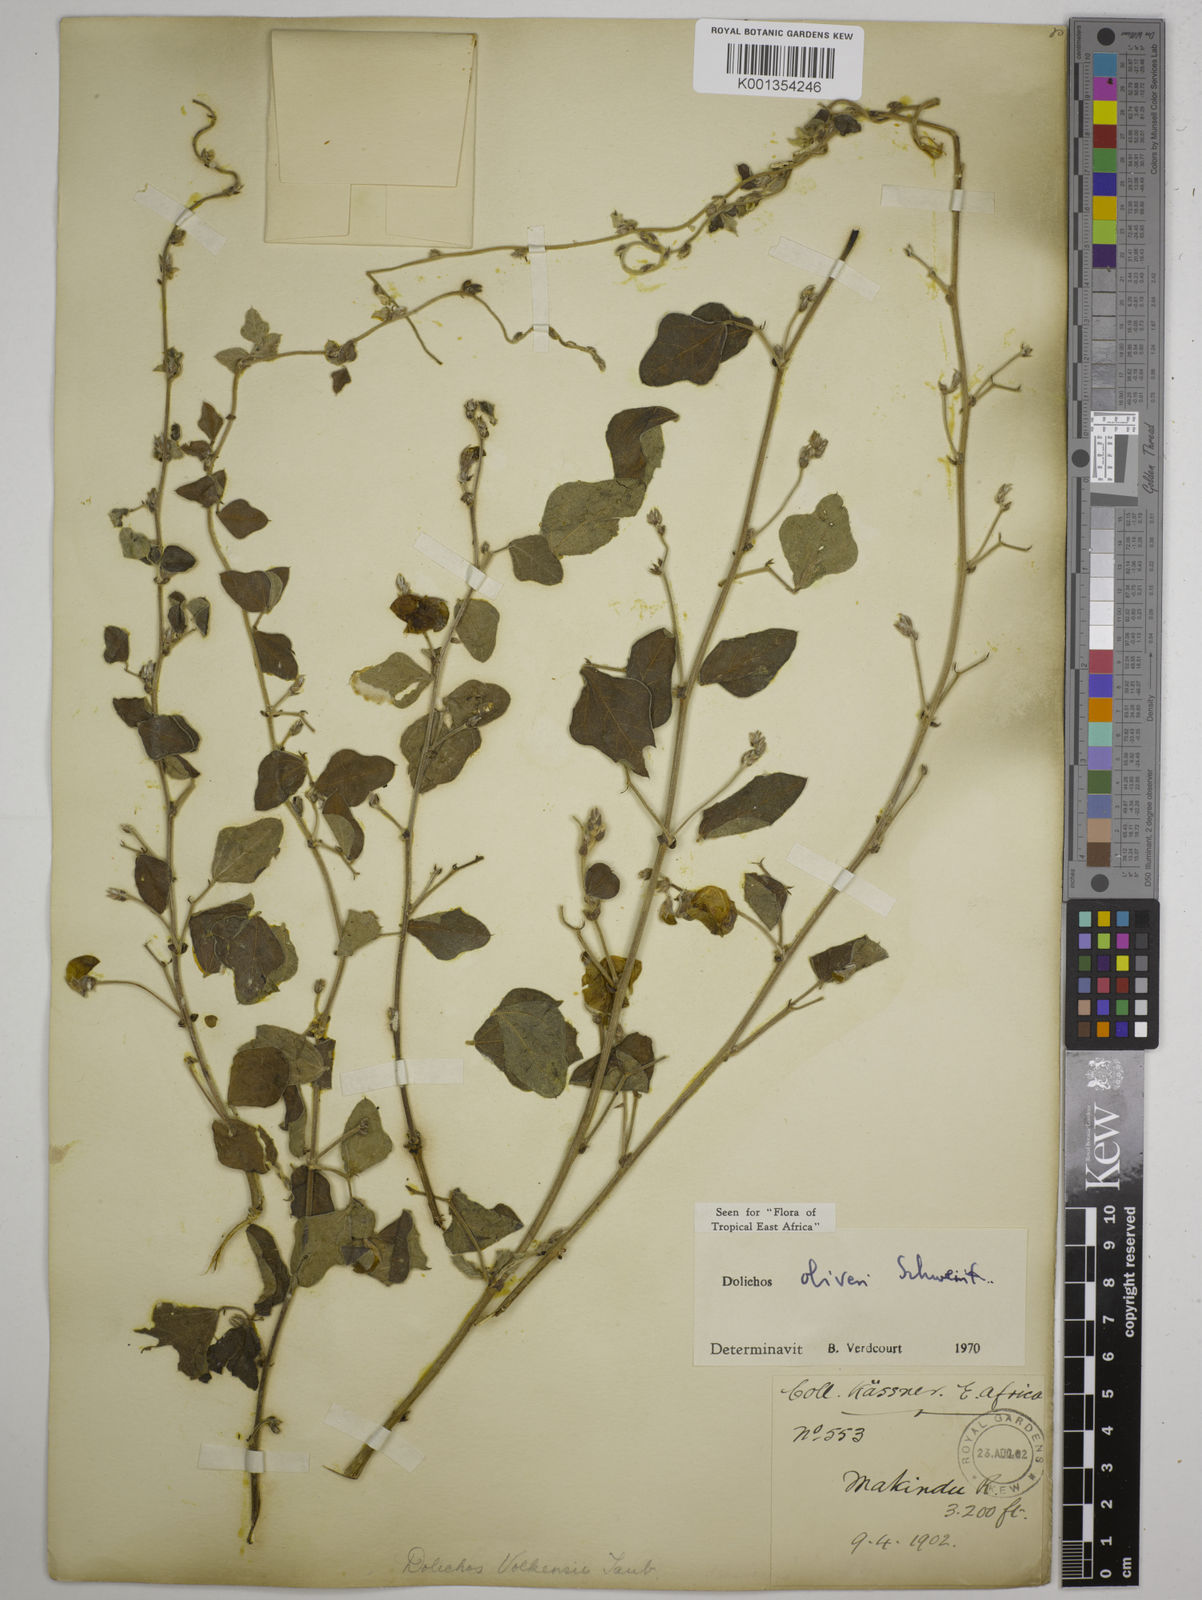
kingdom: Plantae
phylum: Tracheophyta
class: Magnoliopsida
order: Fabales
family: Fabaceae
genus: Dolichos
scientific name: Dolichos oliveri
